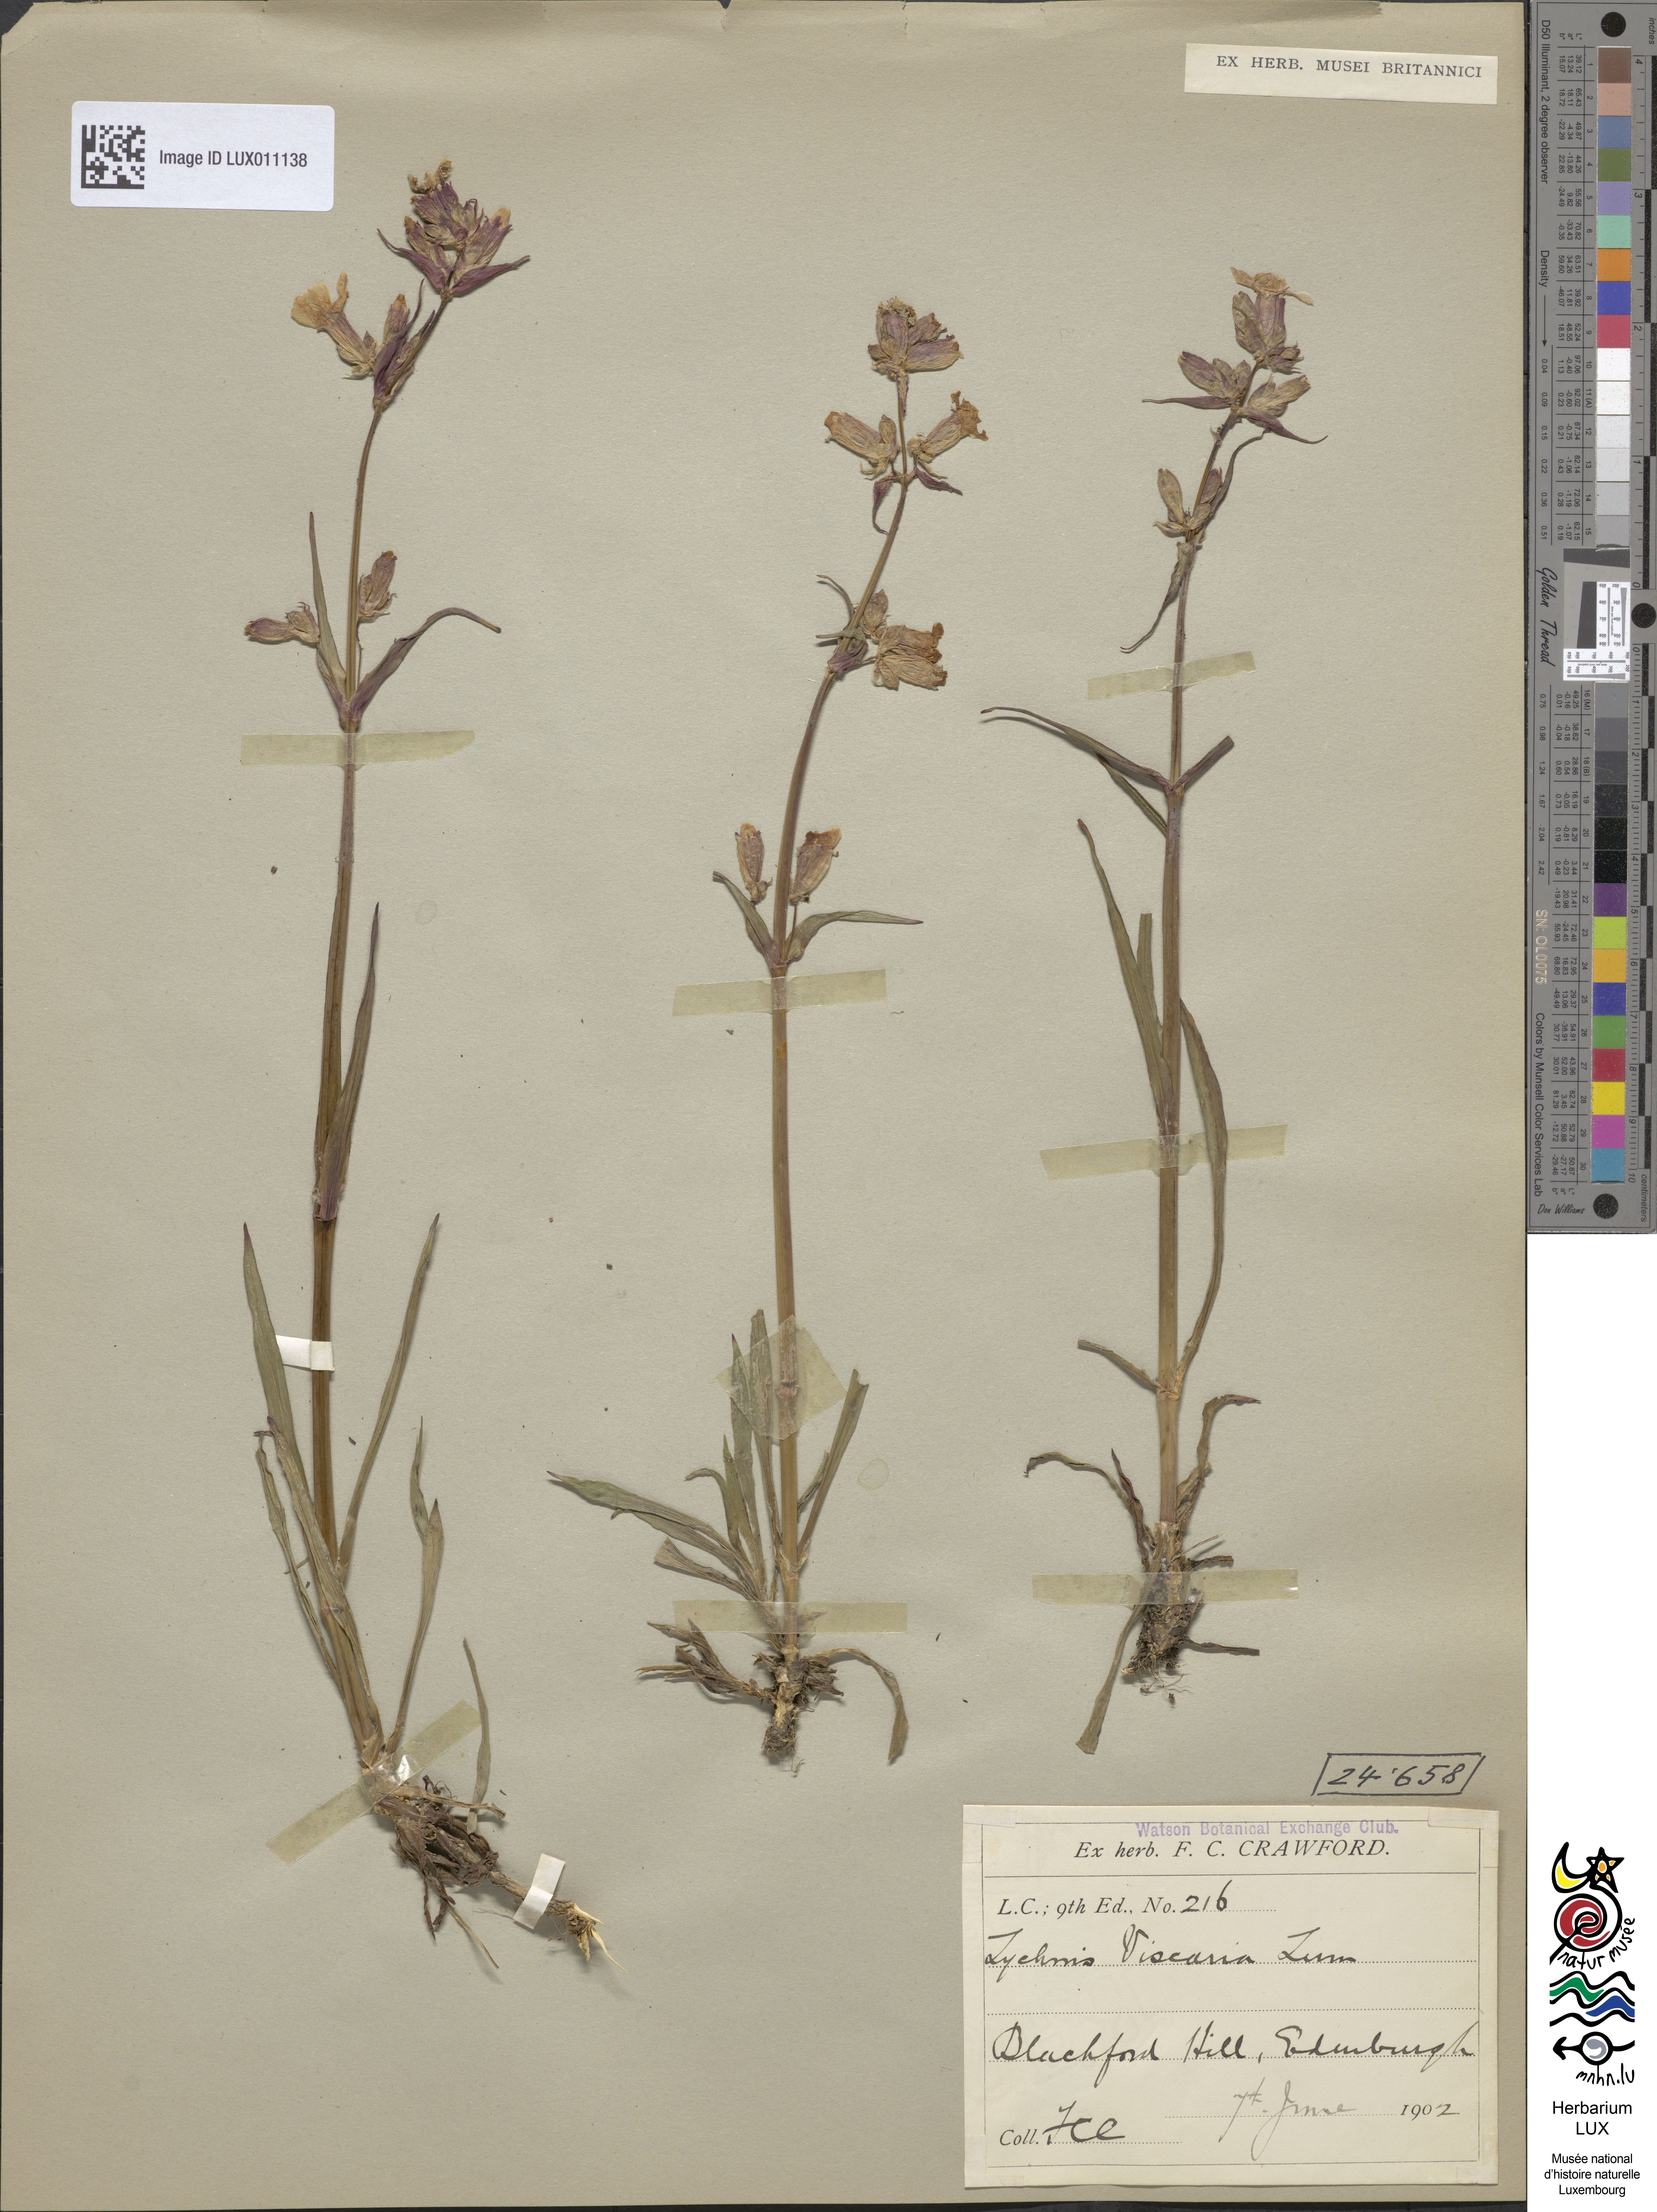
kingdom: Plantae
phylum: Tracheophyta
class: Magnoliopsida
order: Caryophyllales
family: Caryophyllaceae
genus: Viscaria
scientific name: Viscaria vulgaris
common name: Clammy campion
